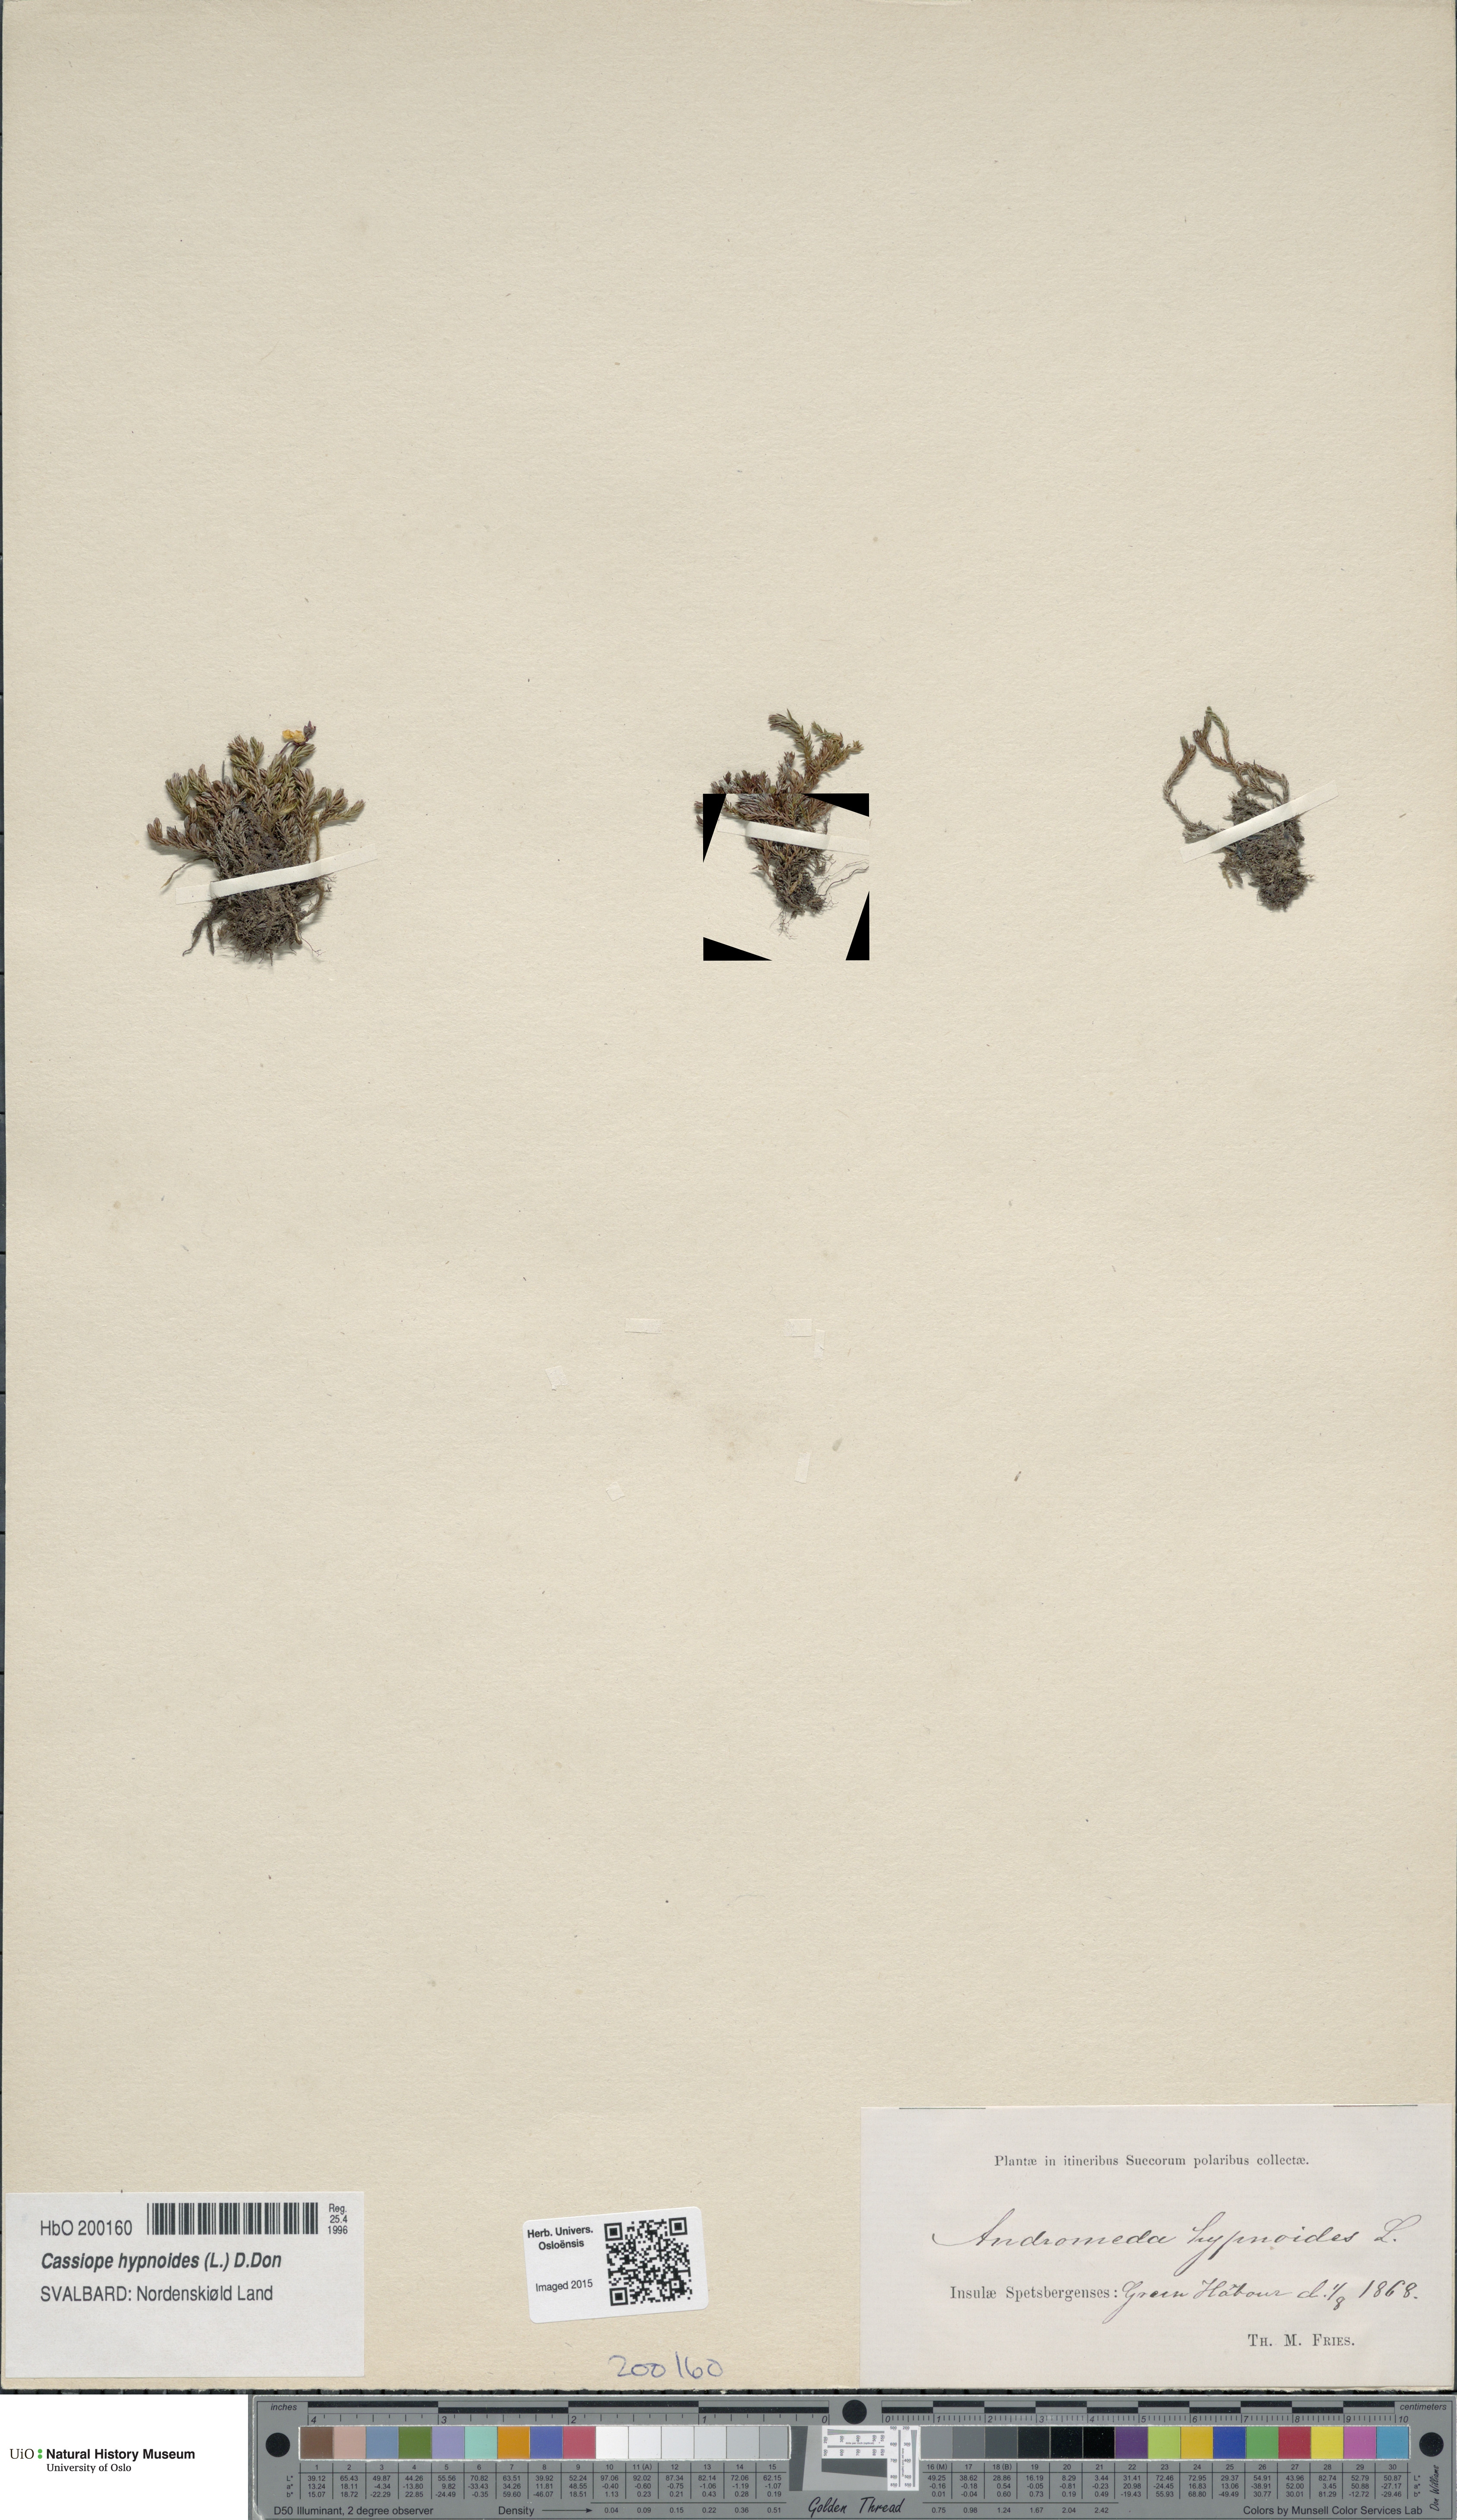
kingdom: Plantae
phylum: Tracheophyta
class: Magnoliopsida
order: Ericales
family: Ericaceae
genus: Harrimanella
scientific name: Harrimanella hypnoides
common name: Moss bell heather
